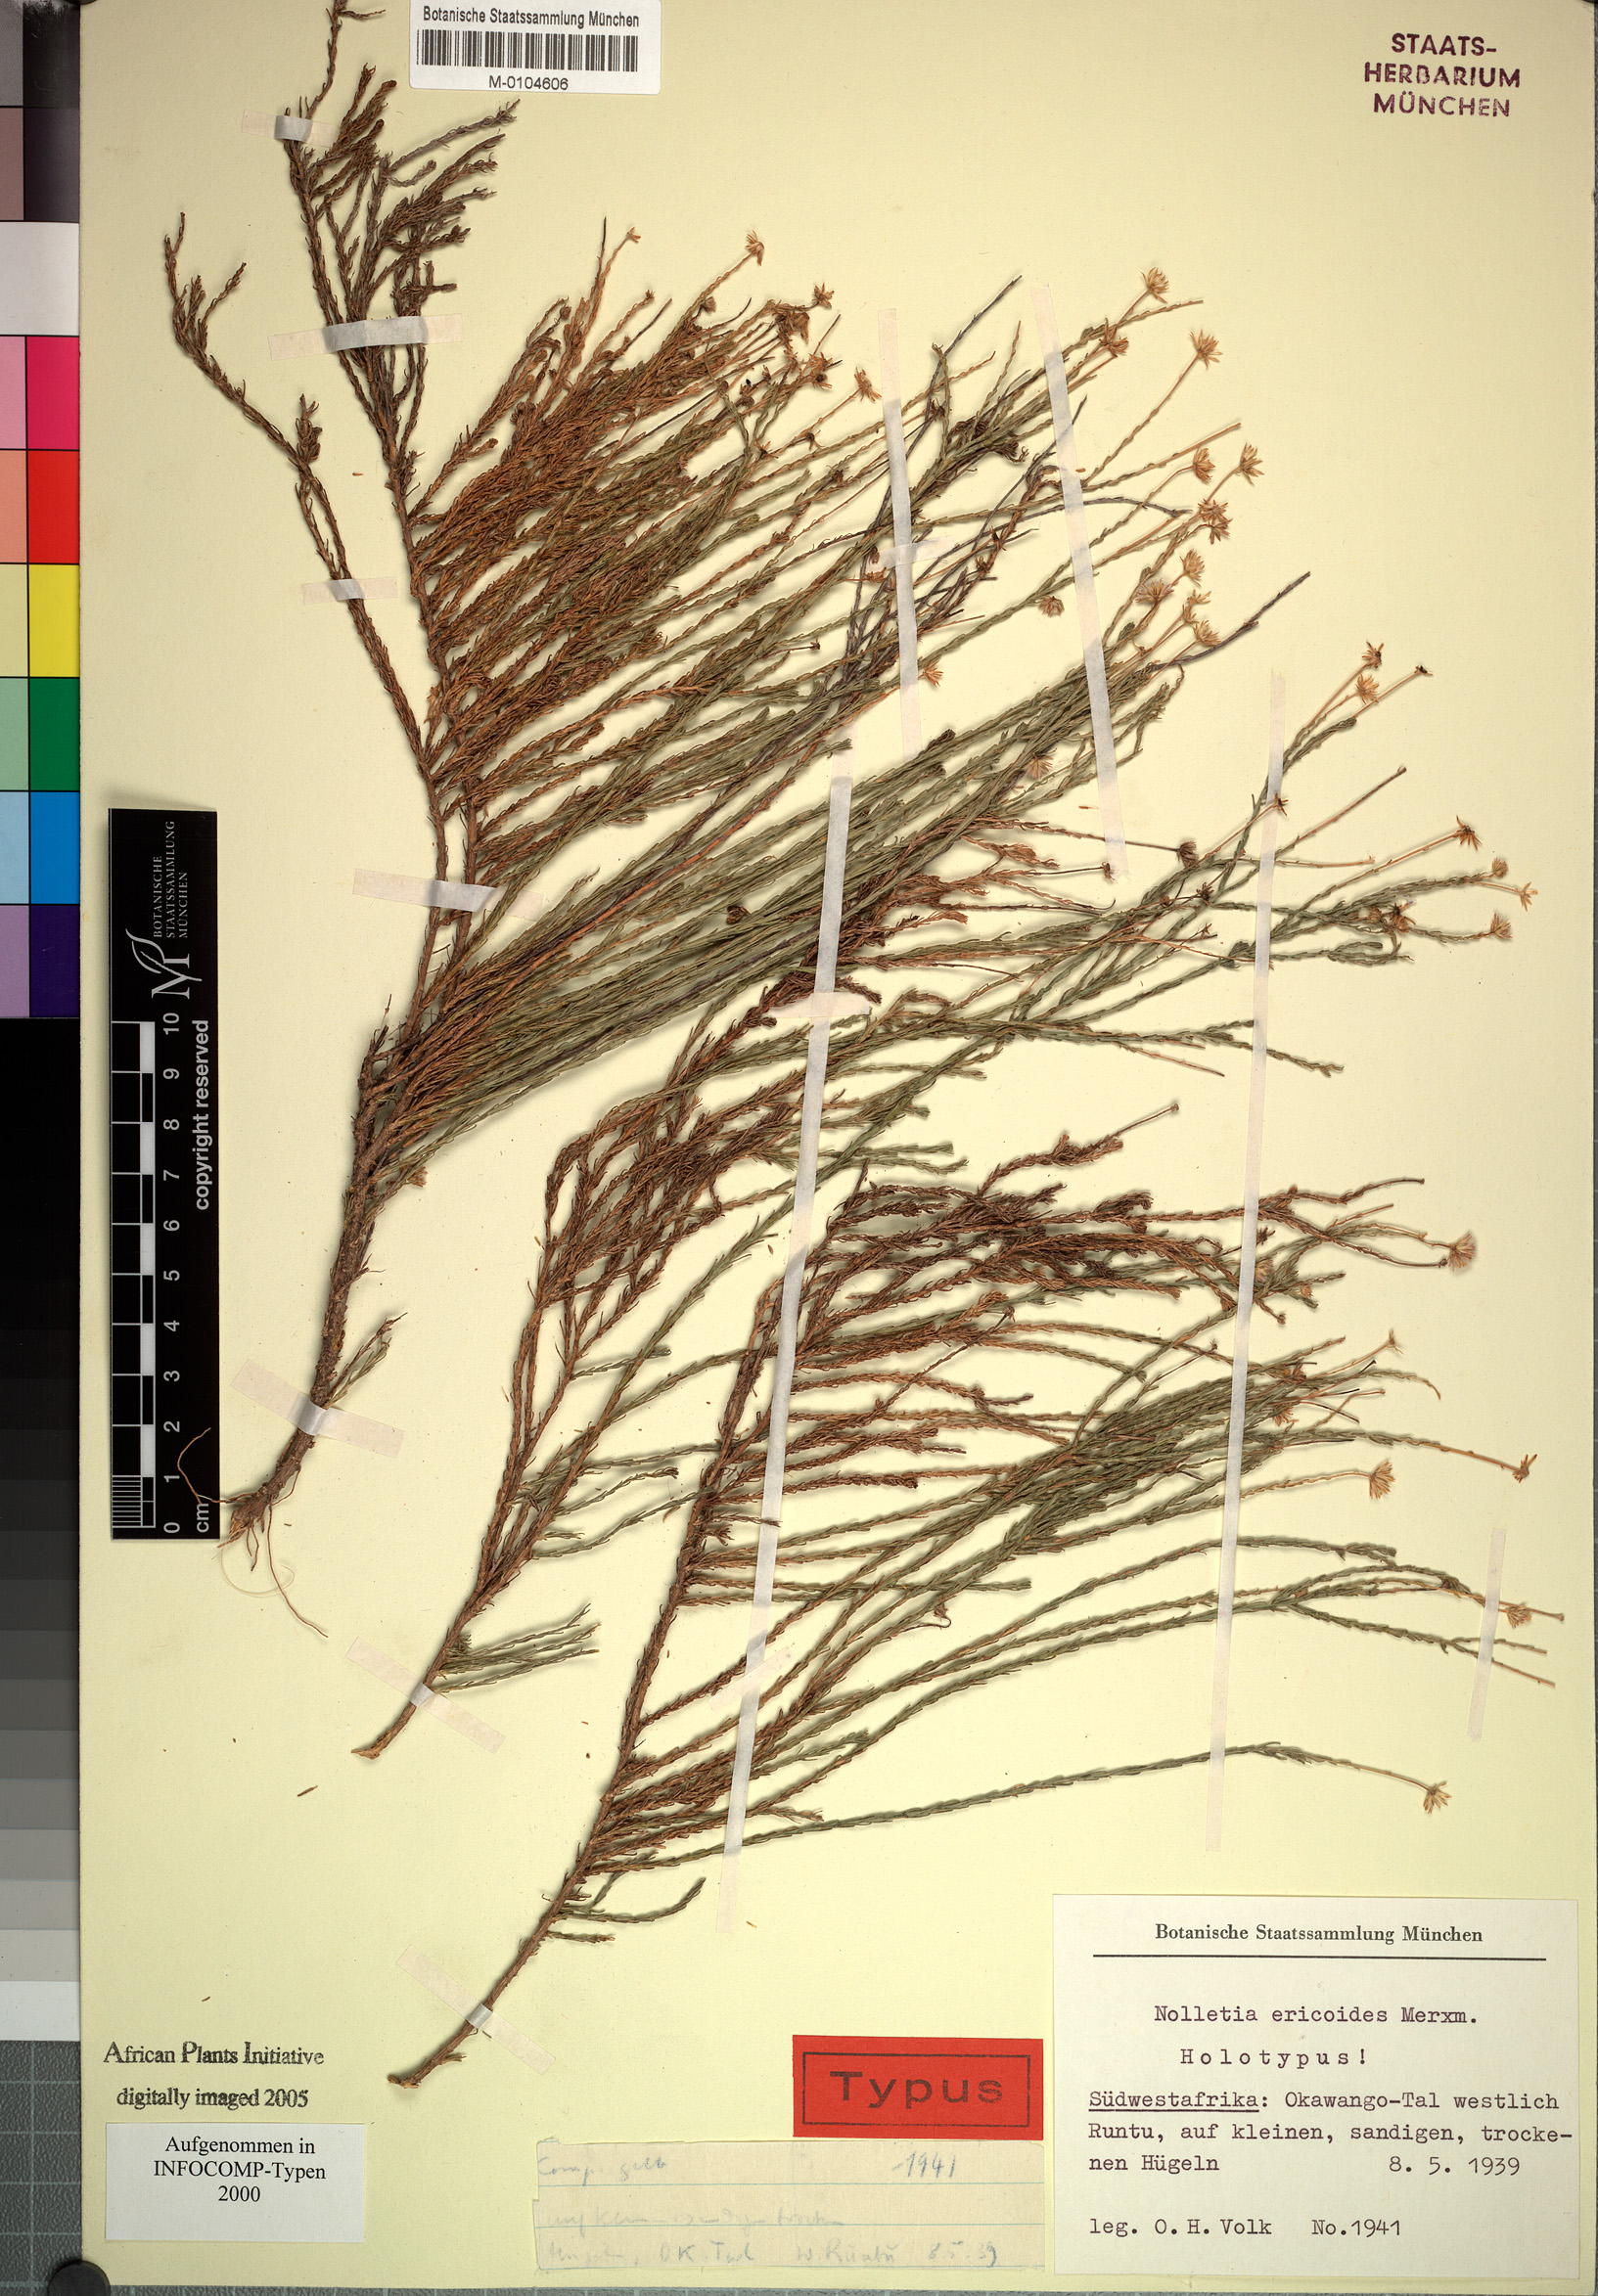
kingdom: Plantae
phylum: Tracheophyta
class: Magnoliopsida
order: Asterales
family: Asteraceae
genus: Nolletia
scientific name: Nolletia ciliaris
